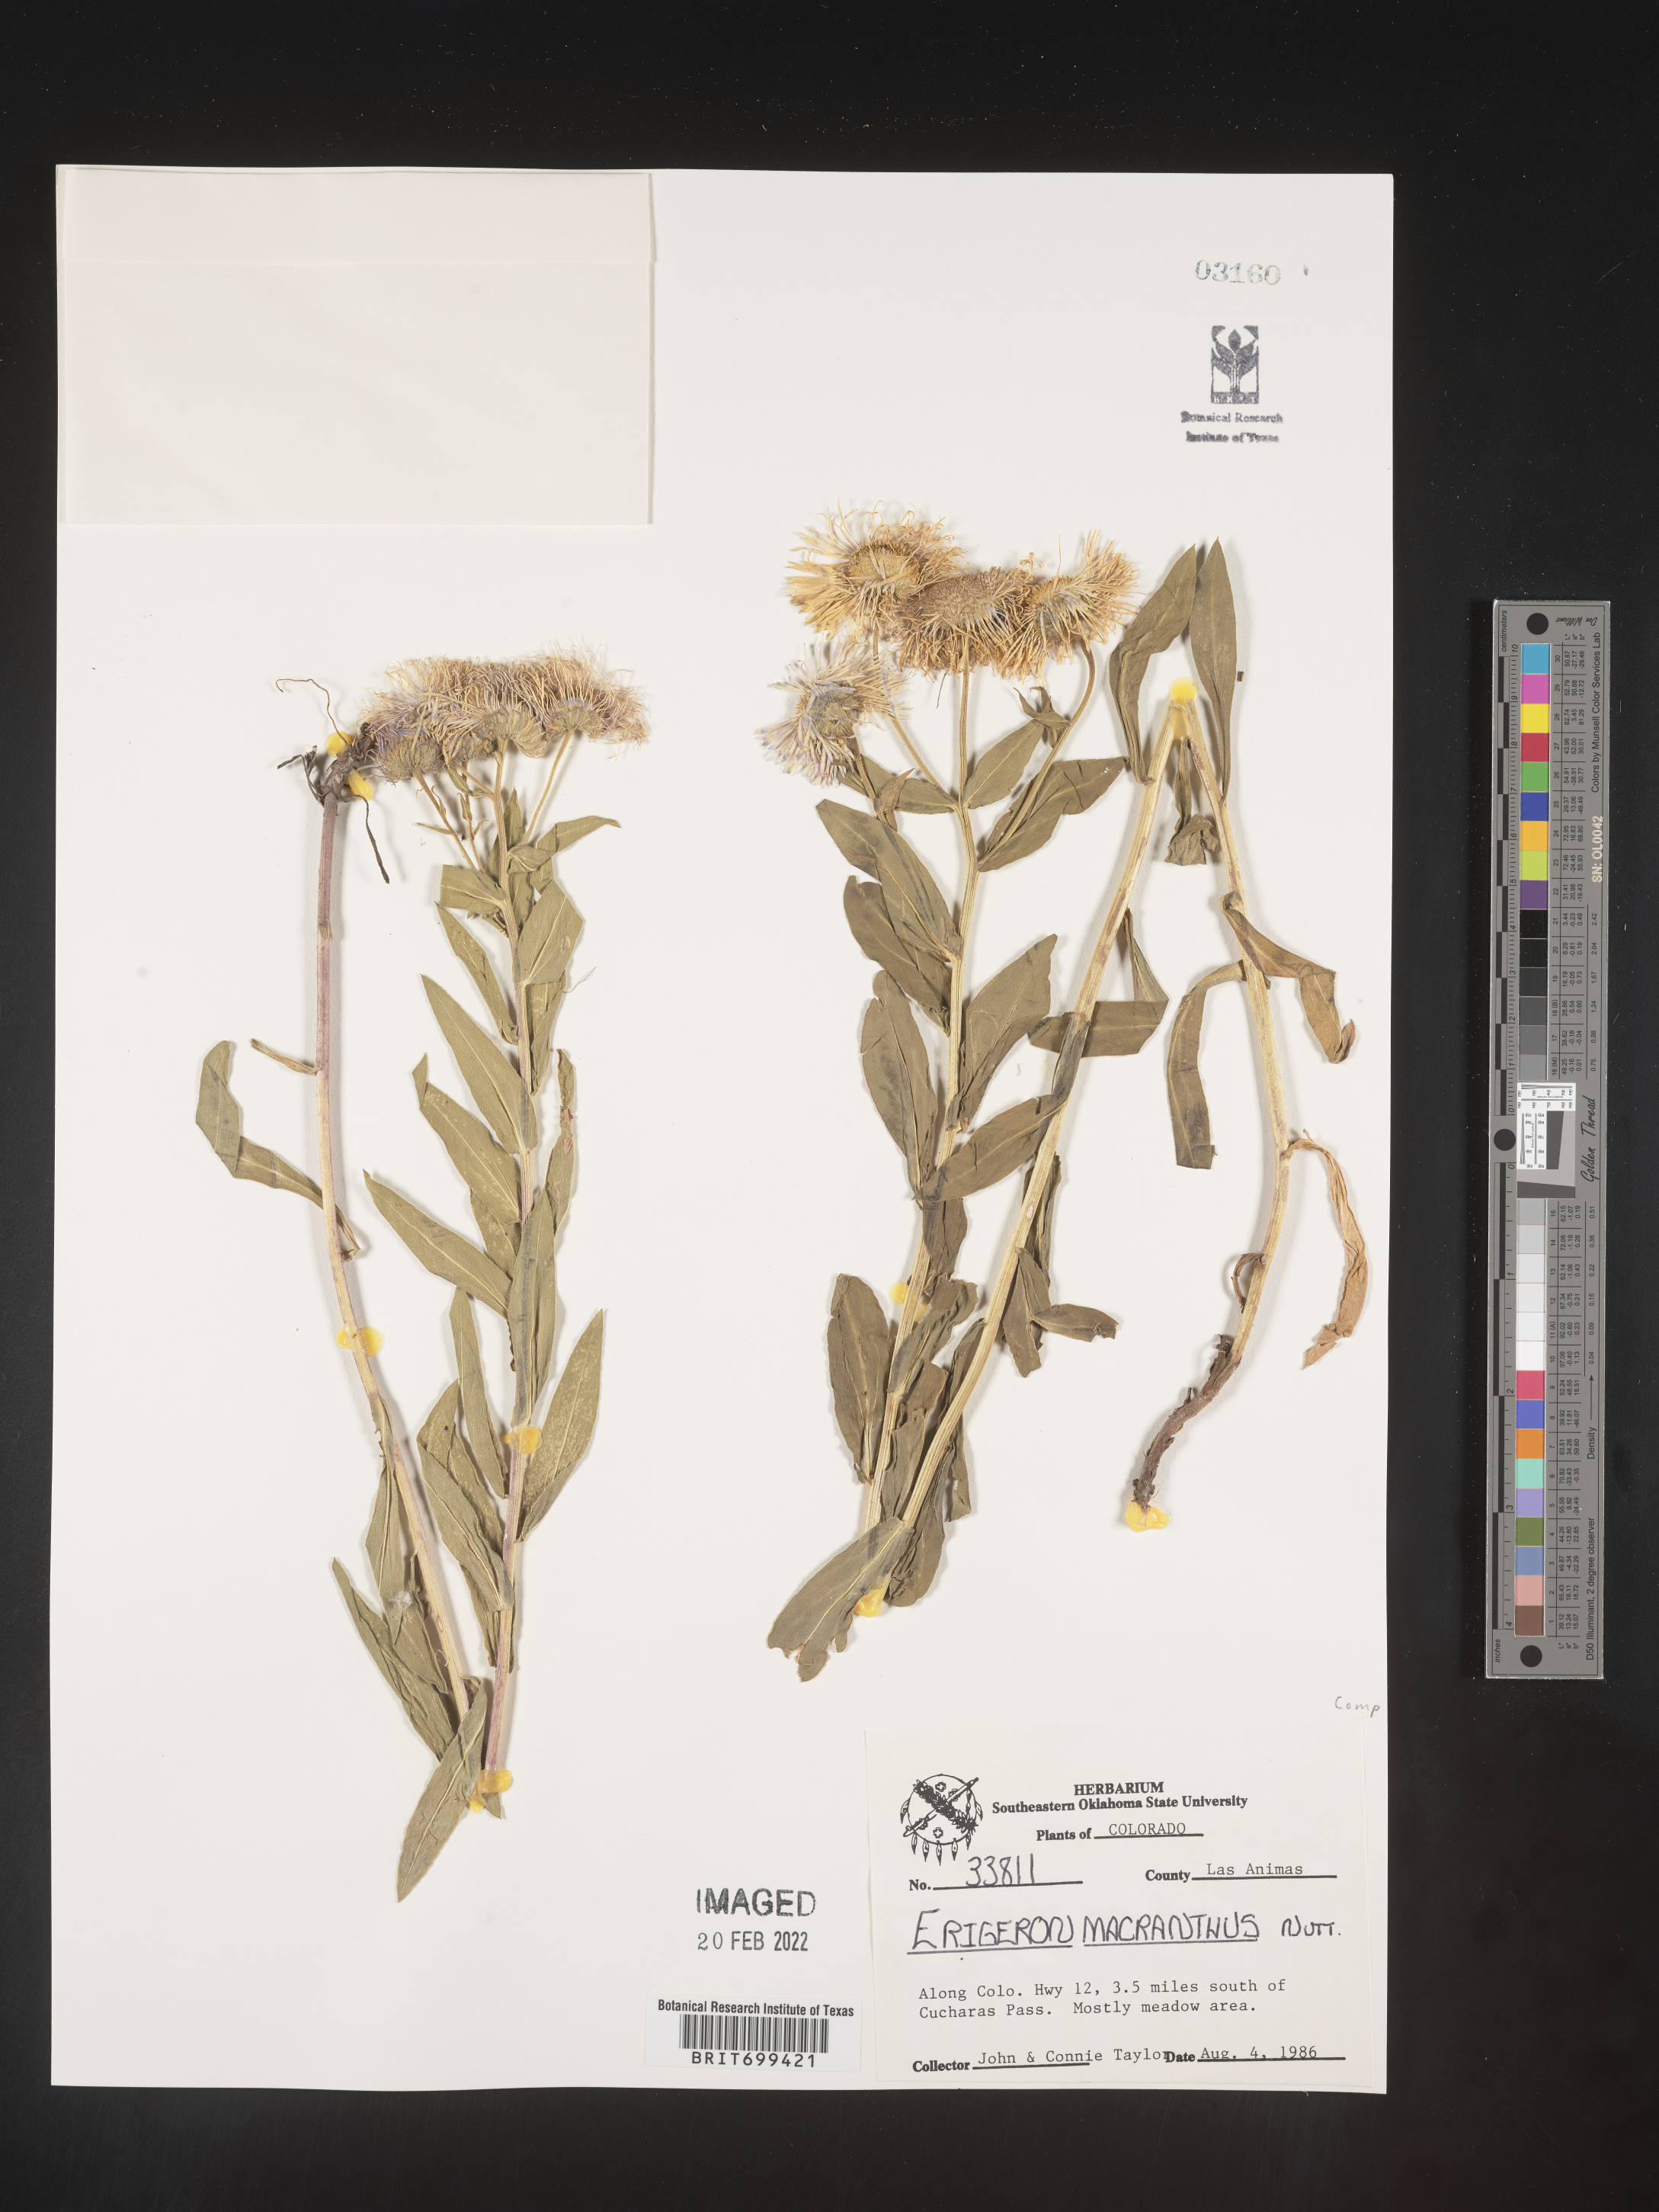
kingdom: Plantae
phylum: Tracheophyta
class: Magnoliopsida
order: Asterales
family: Asteraceae
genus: Erigeron
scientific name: Erigeron speciosus
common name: Aspen fleabane
